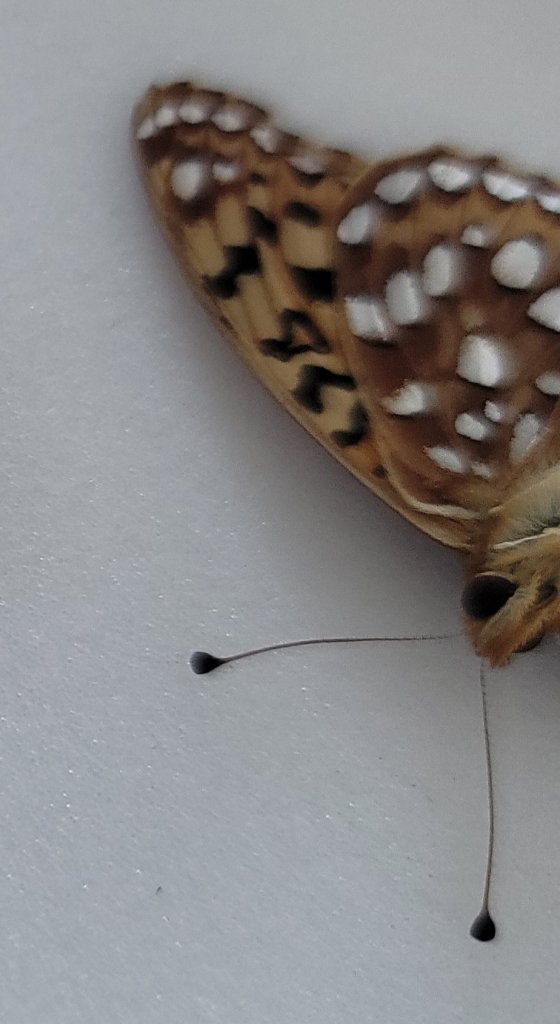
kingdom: Animalia
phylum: Arthropoda
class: Insecta
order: Lepidoptera
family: Nymphalidae
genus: Speyeria
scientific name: Speyeria coronis
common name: Coronis Fritillary
